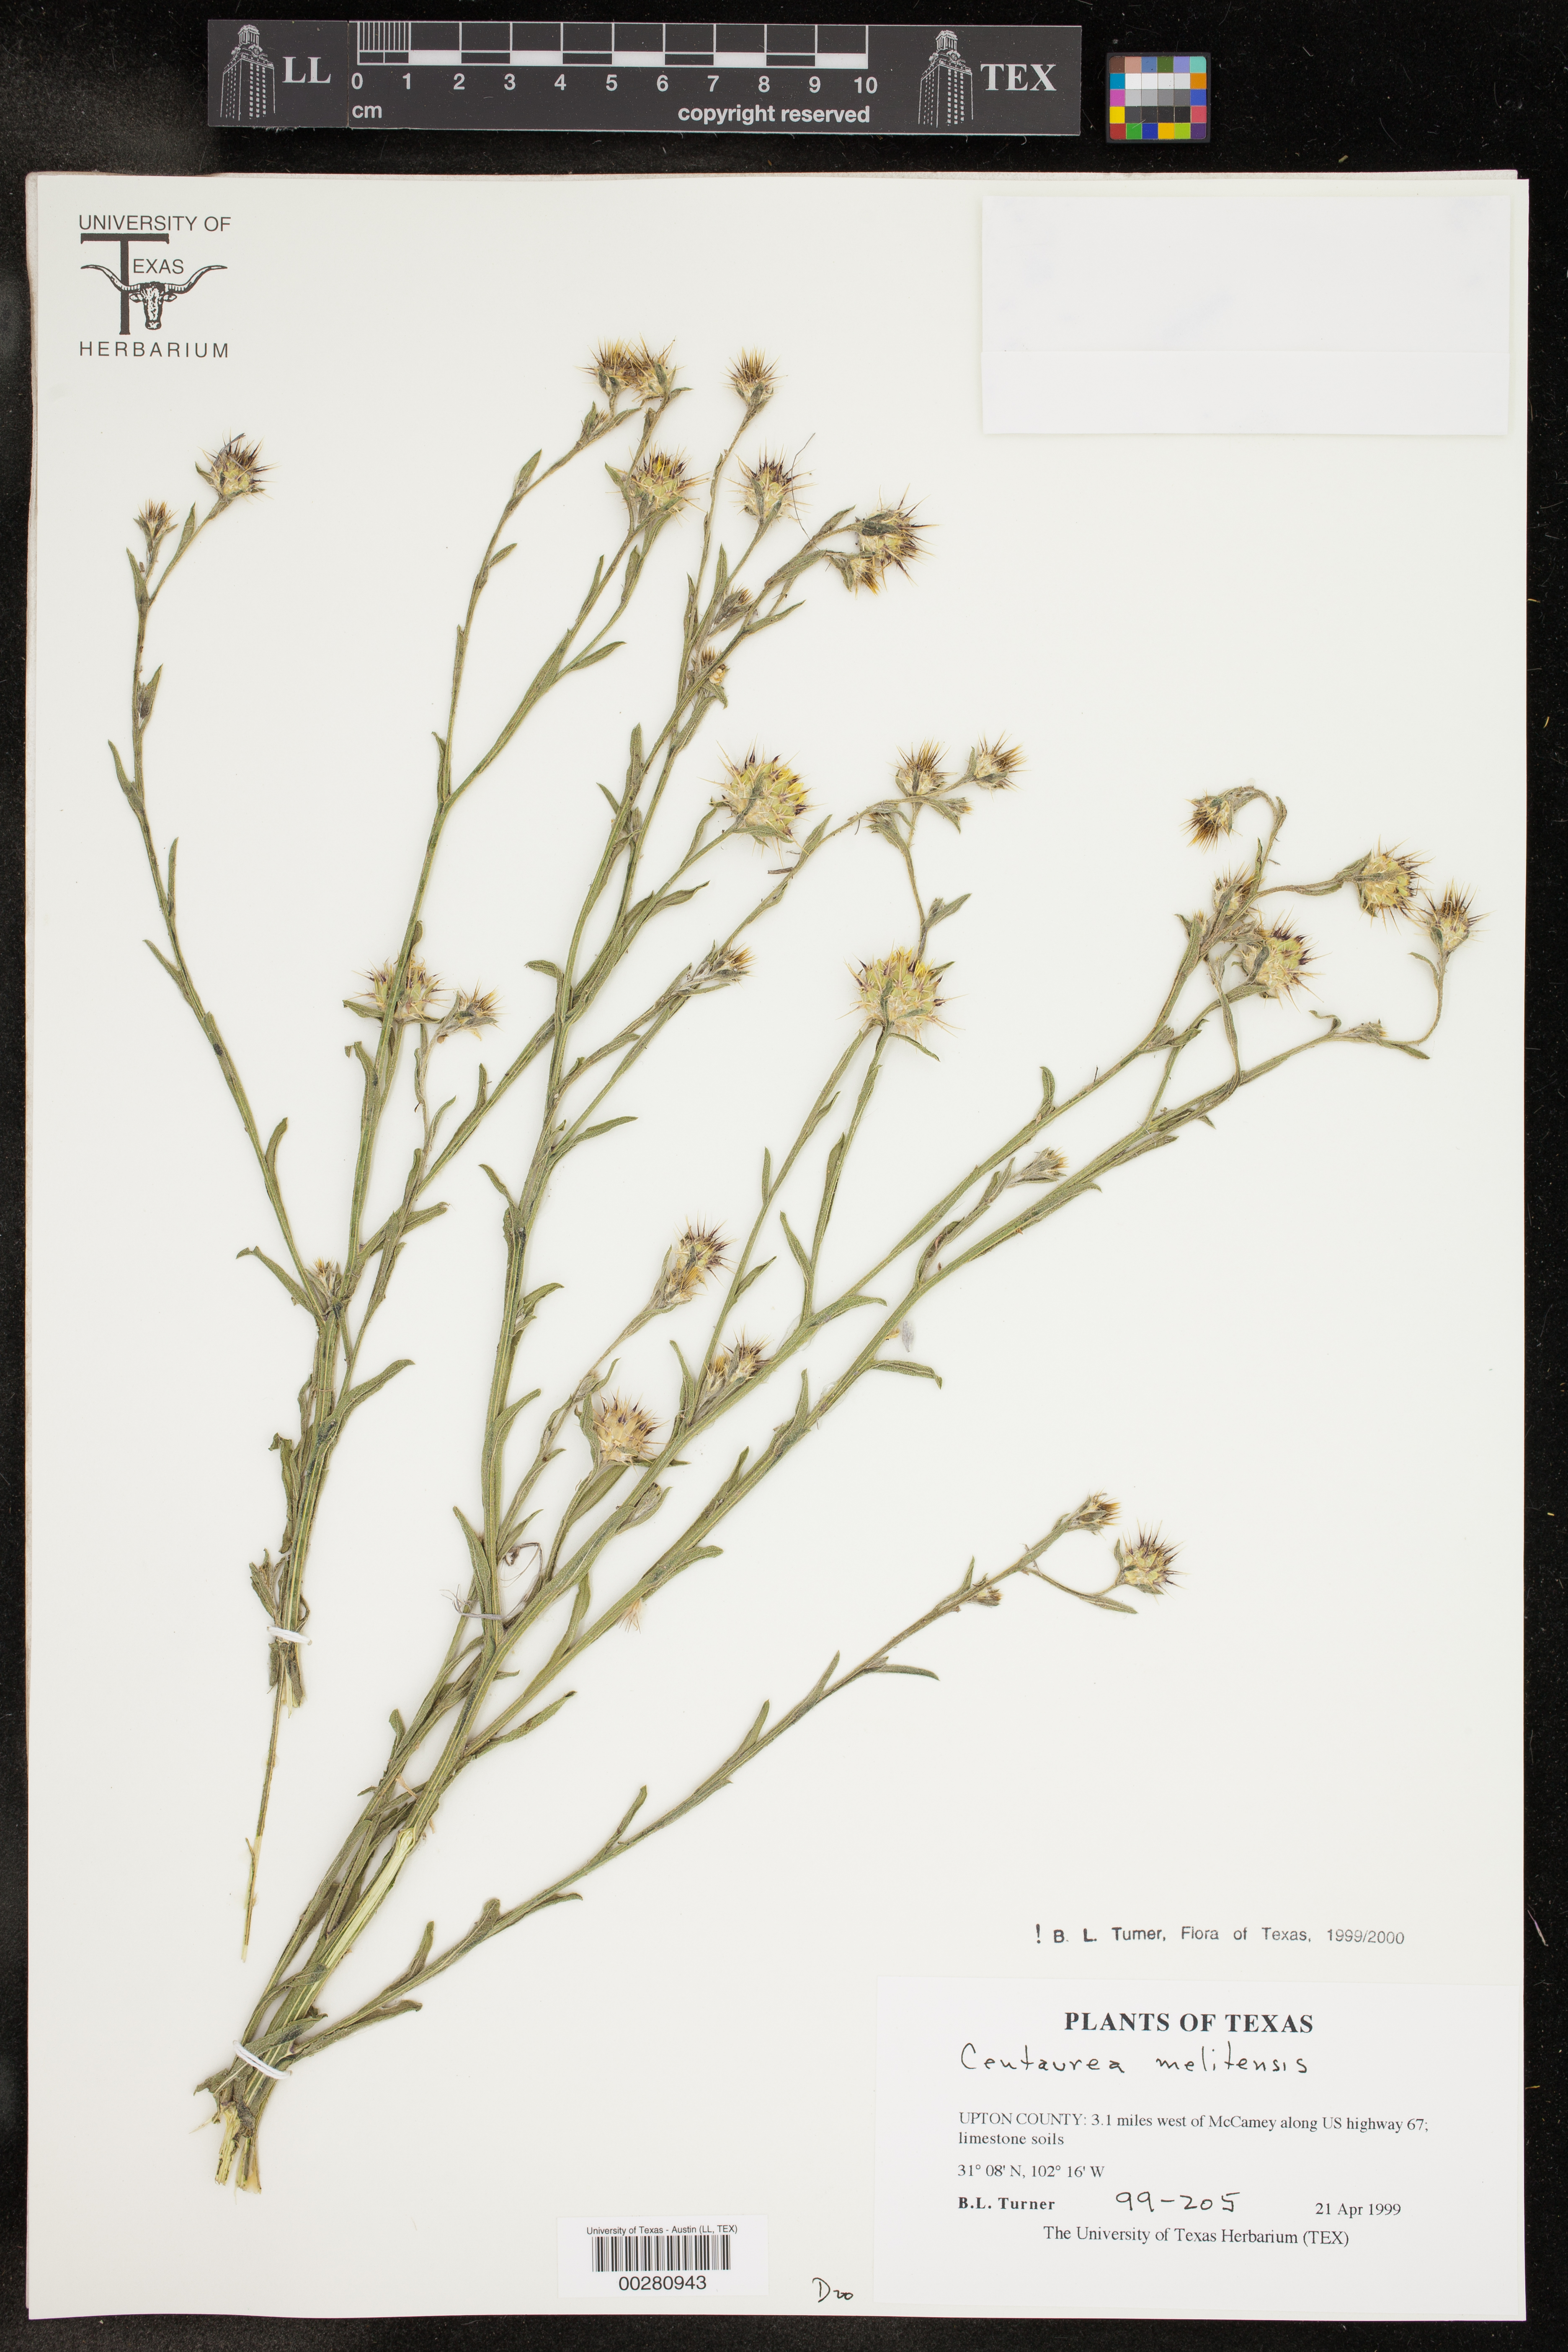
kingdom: Plantae
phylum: Tracheophyta
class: Magnoliopsida
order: Asterales
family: Asteraceae
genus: Centaurea
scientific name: Centaurea melitensis
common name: Maltese star-thistle
